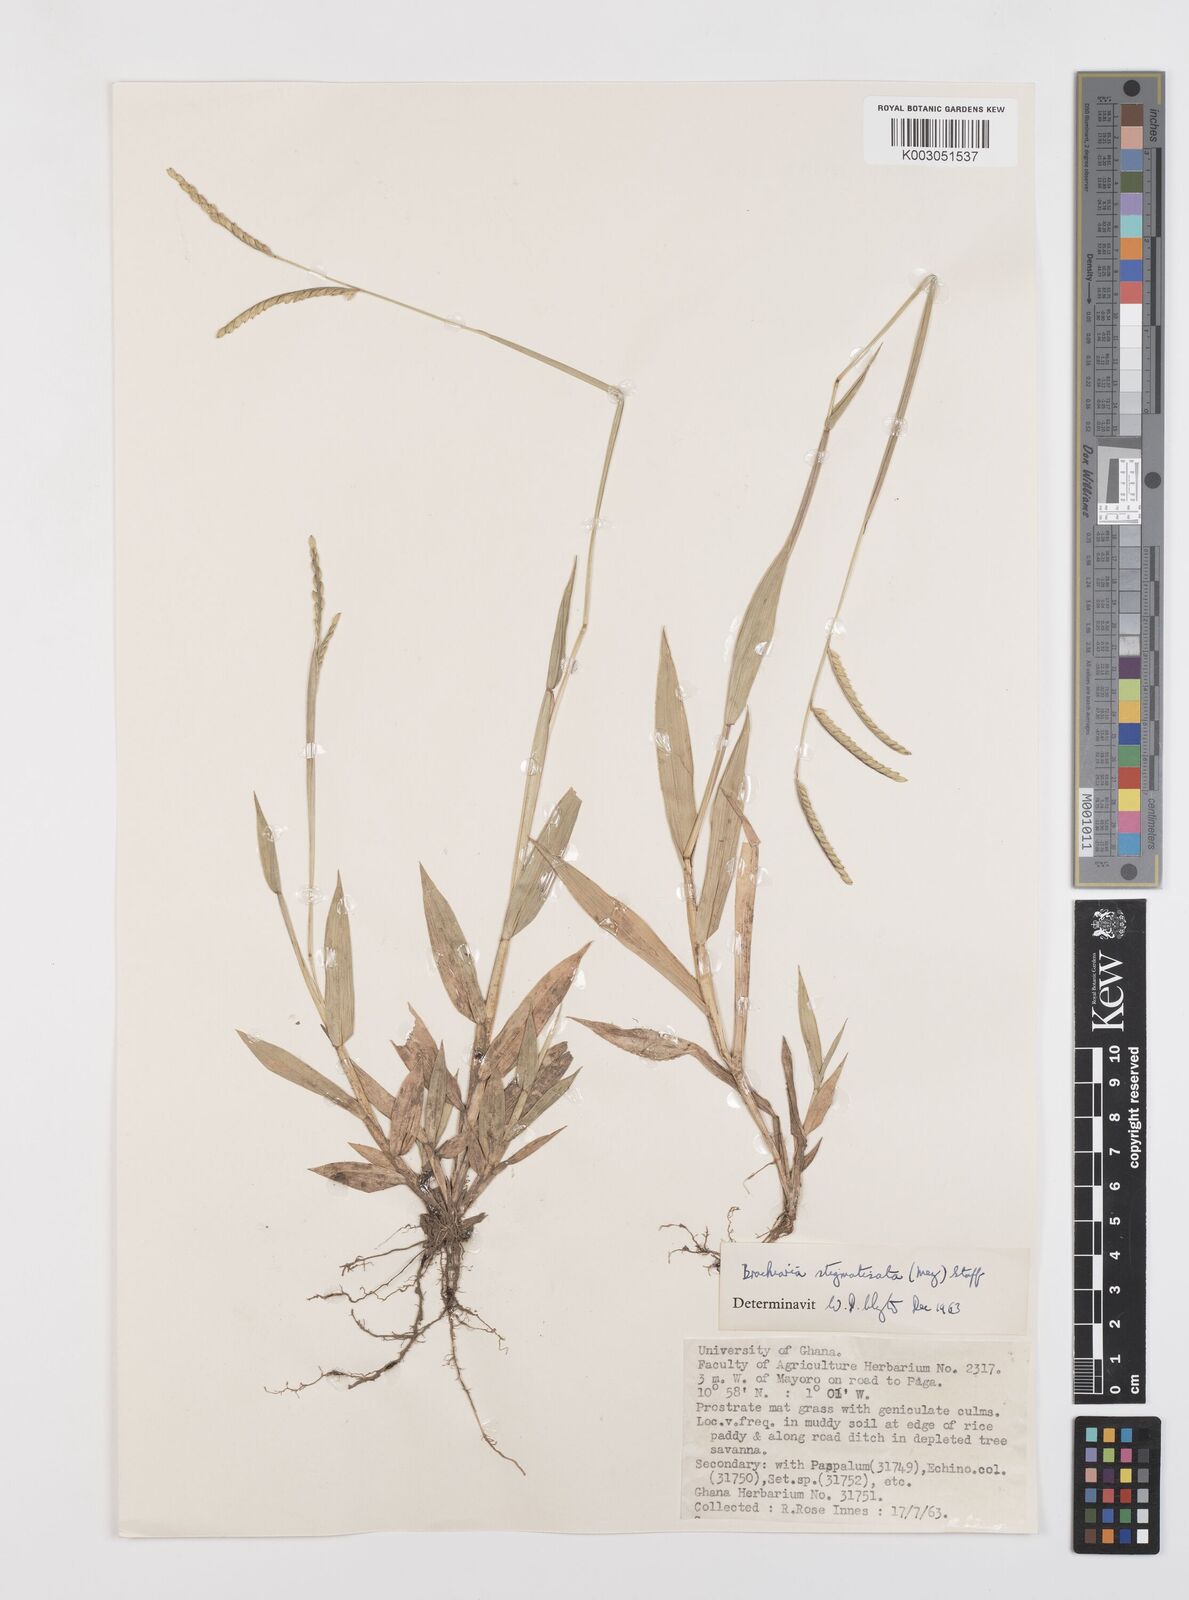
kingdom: Plantae
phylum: Tracheophyta
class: Liliopsida
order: Poales
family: Poaceae
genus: Urochloa
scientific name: Urochloa stigmatisata
